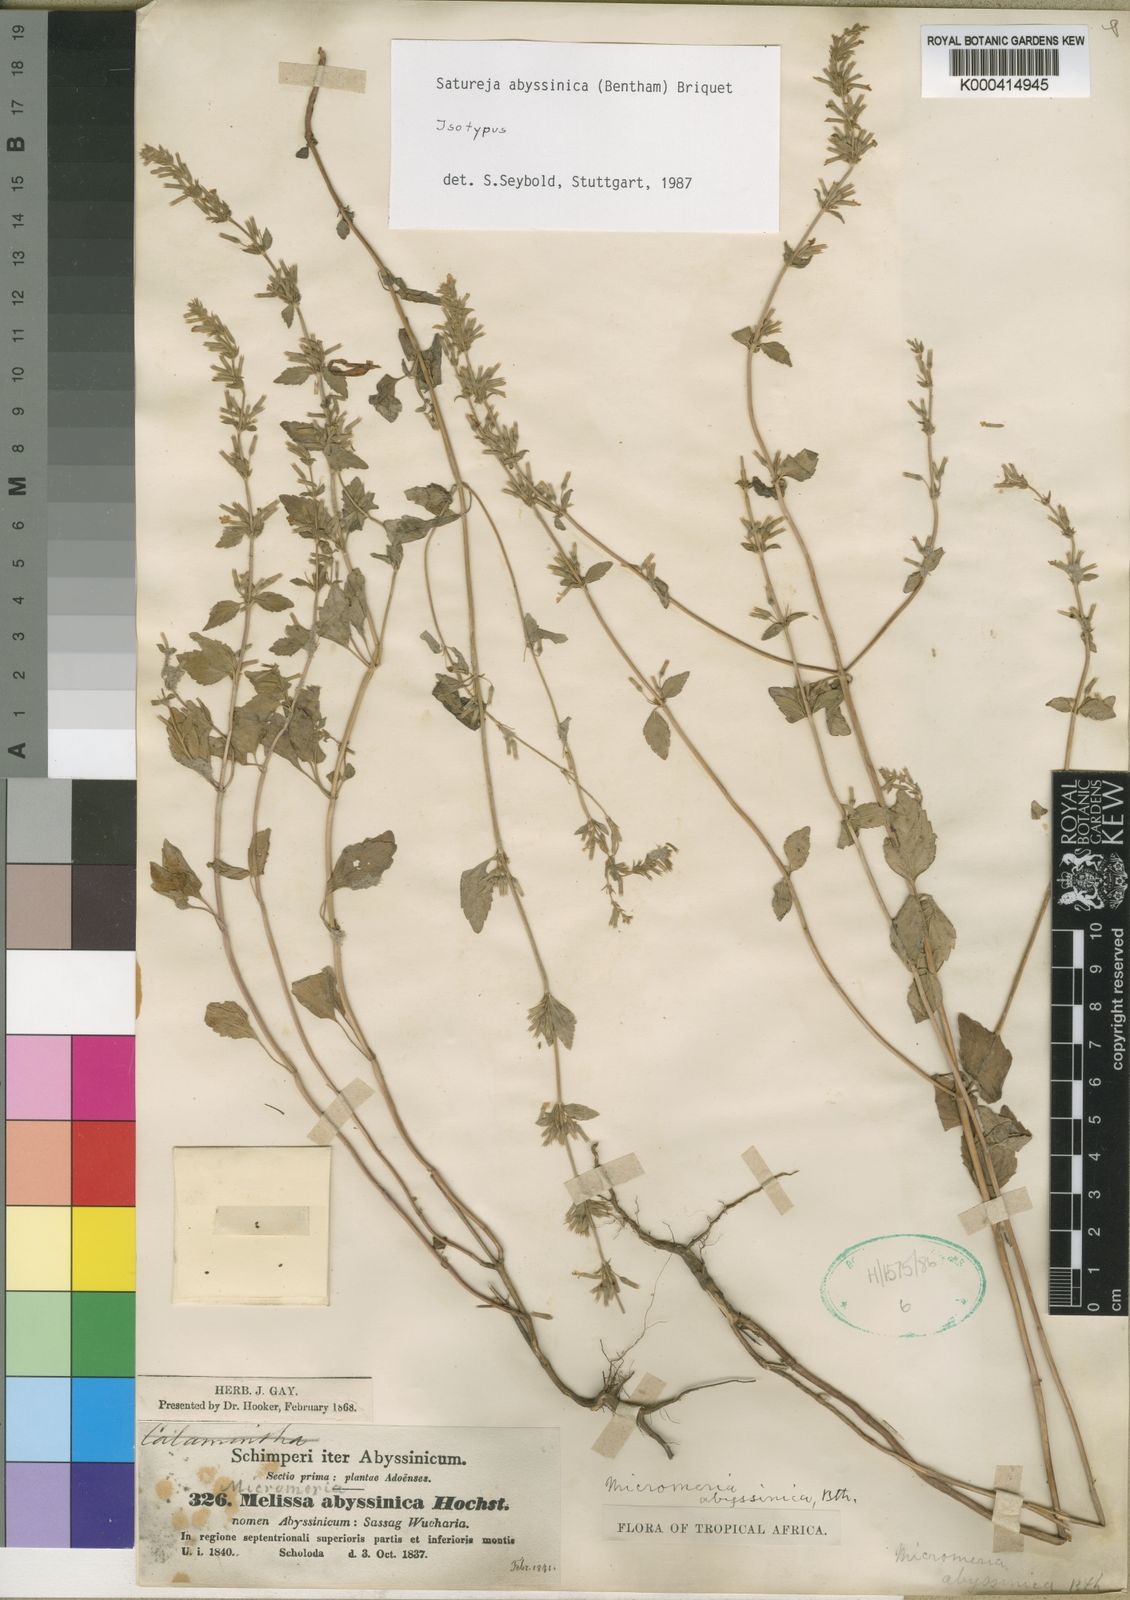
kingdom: Plantae
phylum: Tracheophyta
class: Magnoliopsida
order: Lamiales
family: Lamiaceae
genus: Clinopodium
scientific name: Clinopodium abyssinicum
